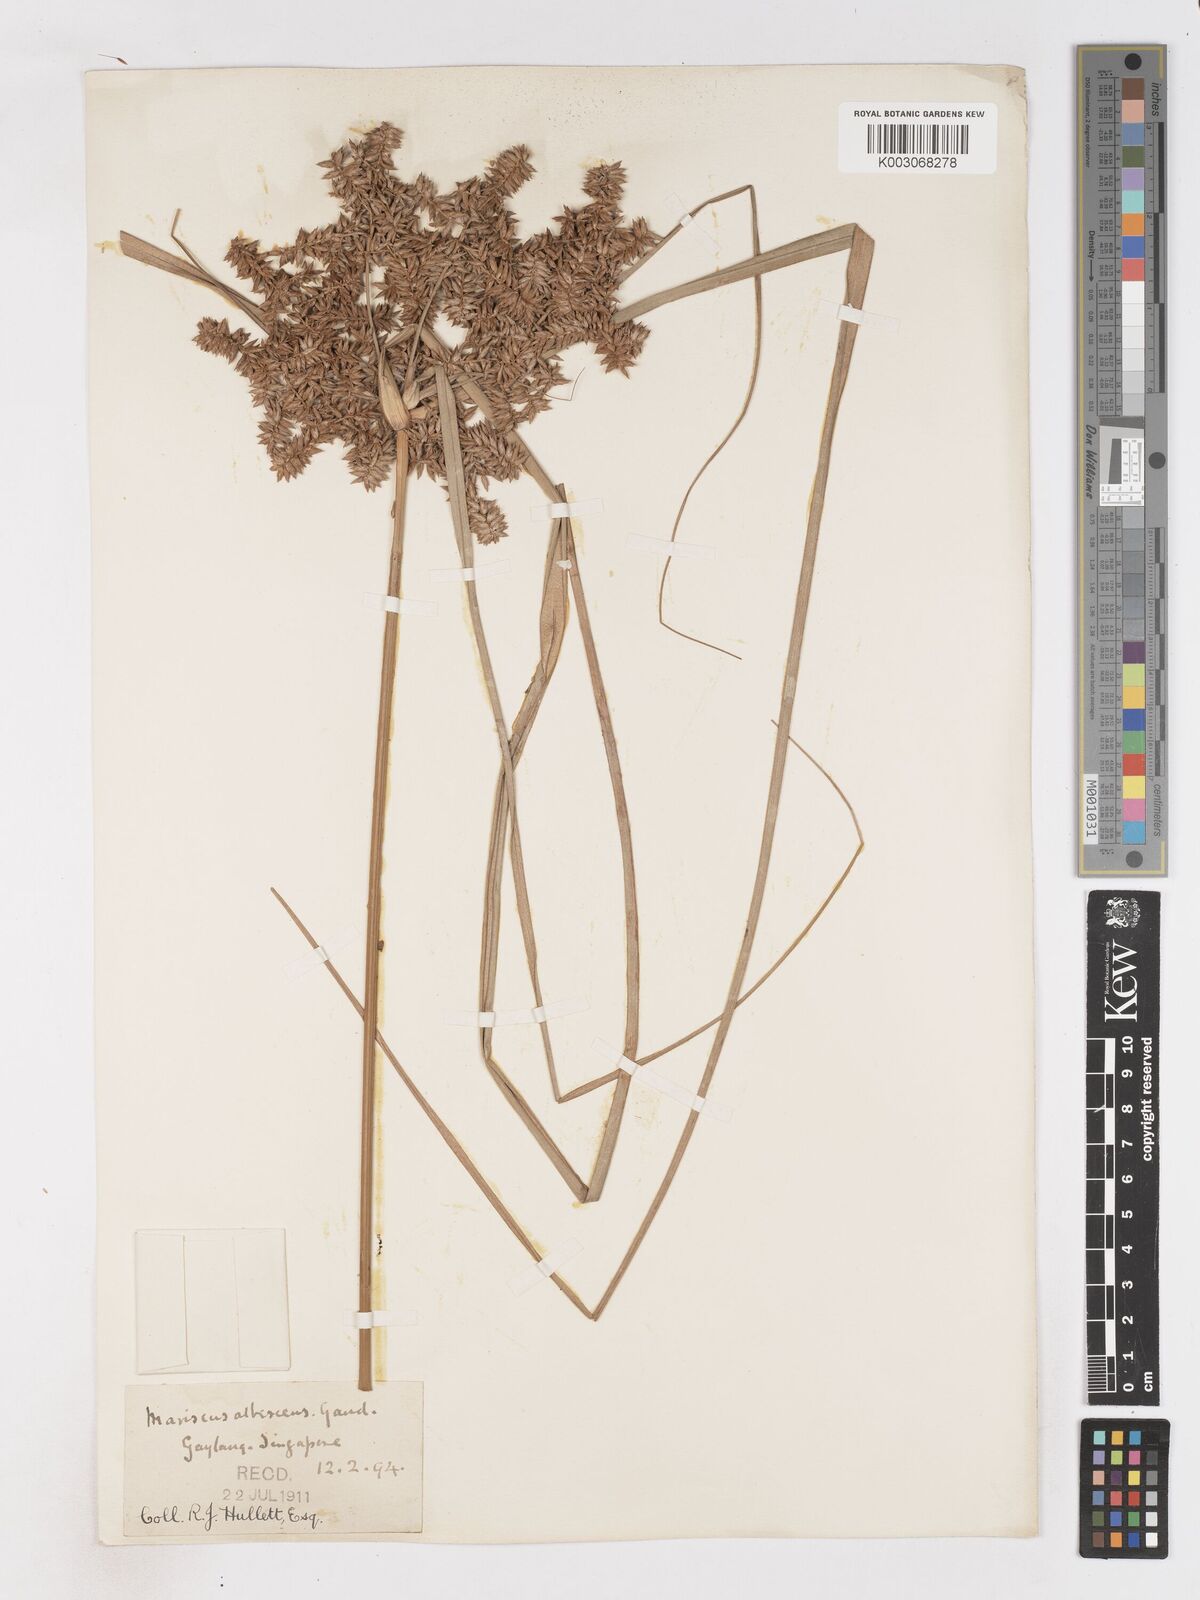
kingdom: Plantae
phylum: Tracheophyta
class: Liliopsida
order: Poales
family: Cyperaceae
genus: Cyperus
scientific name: Cyperus javanicus
